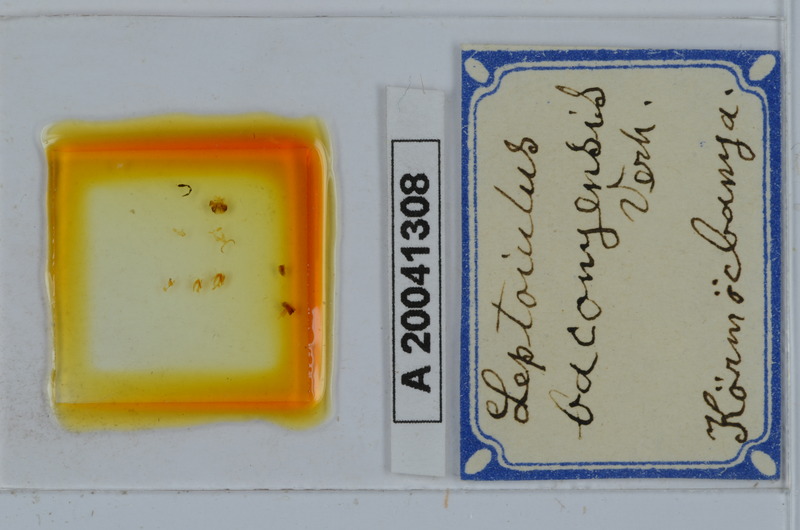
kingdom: Animalia
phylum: Arthropoda
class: Diplopoda
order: Julida
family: Julidae
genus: Leptoiulus
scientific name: Leptoiulus baconyensis
